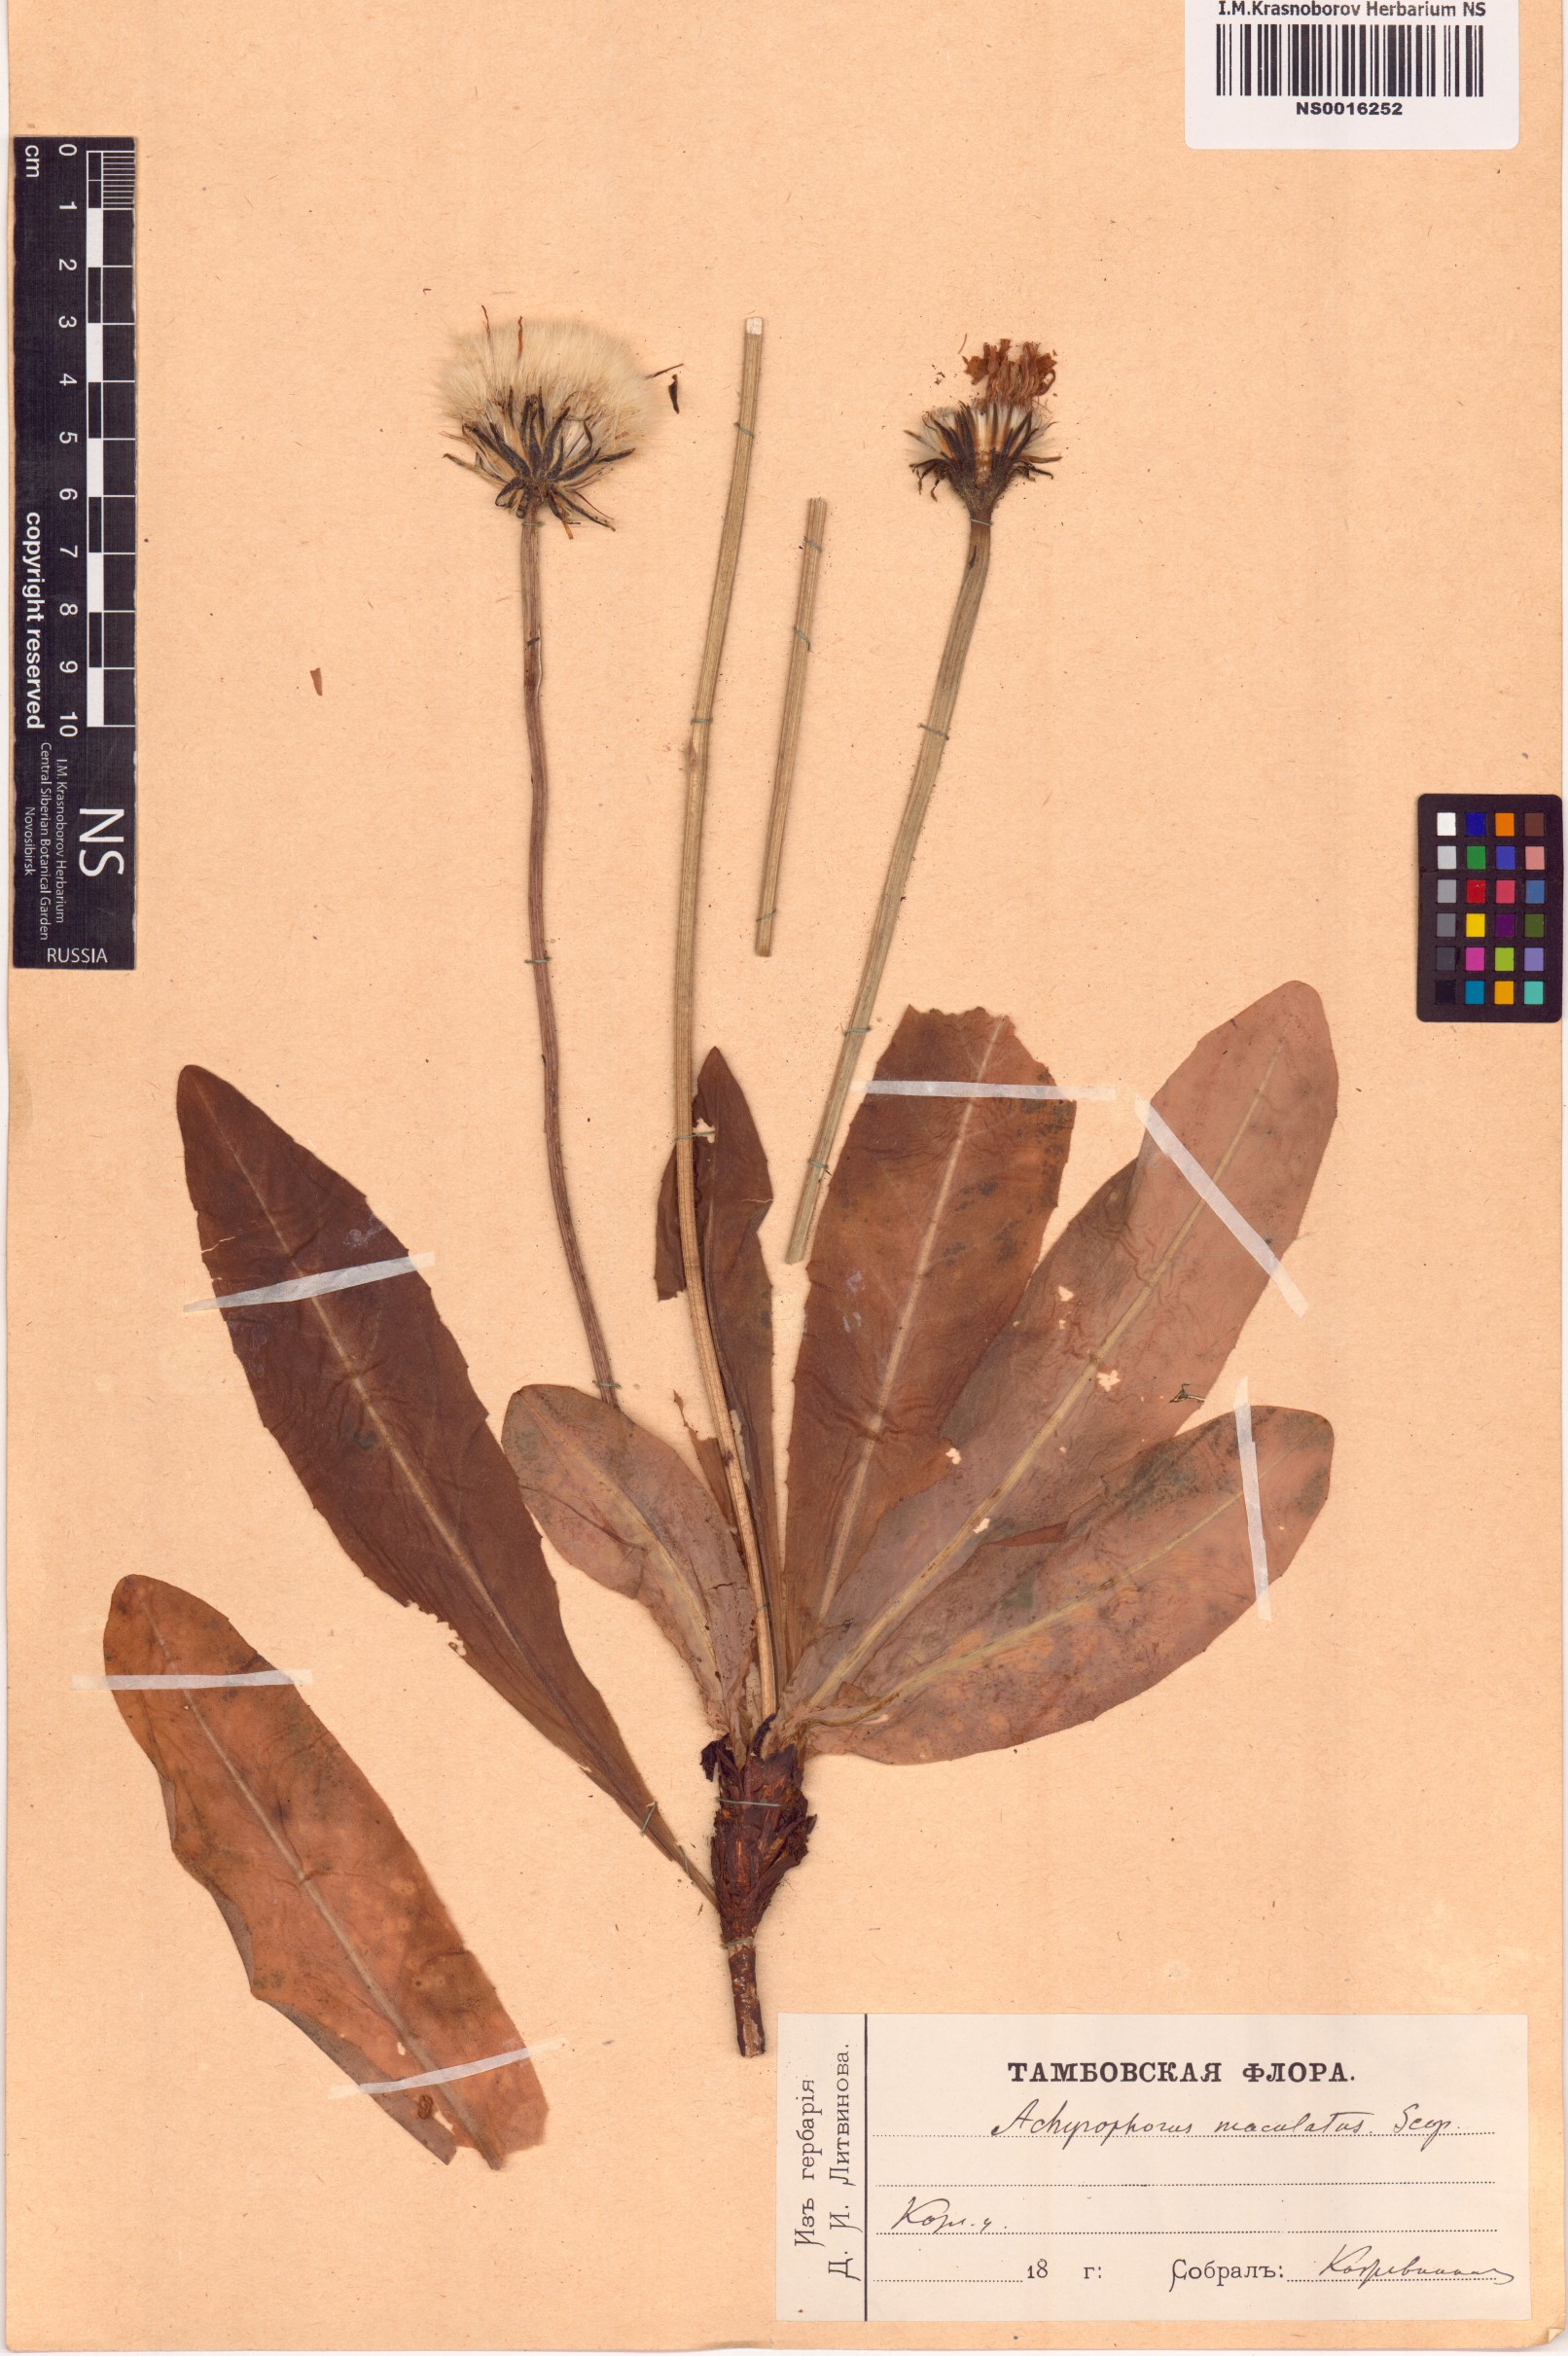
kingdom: Plantae
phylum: Tracheophyta
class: Magnoliopsida
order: Asterales
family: Asteraceae
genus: Trommsdorffia
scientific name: Trommsdorffia maculata
